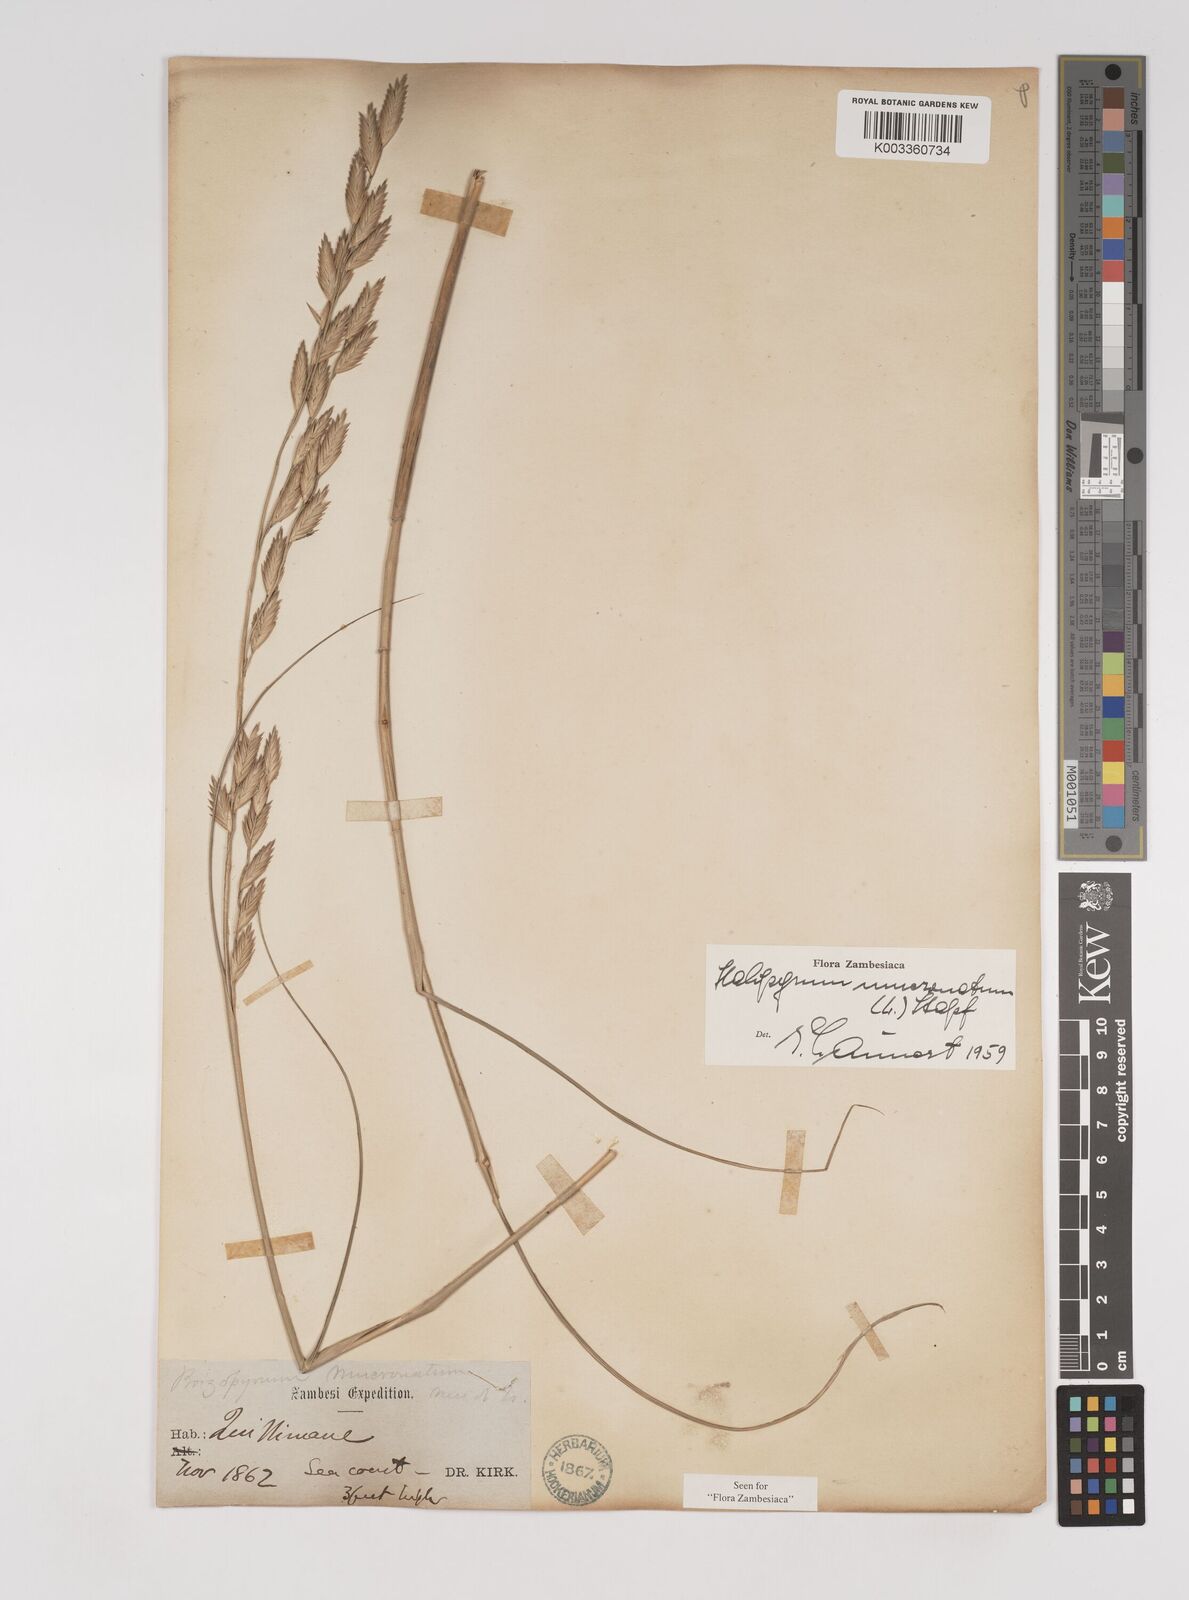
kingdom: Plantae
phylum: Tracheophyta
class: Liliopsida
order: Poales
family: Poaceae
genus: Halopyrum
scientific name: Halopyrum mucronatum
